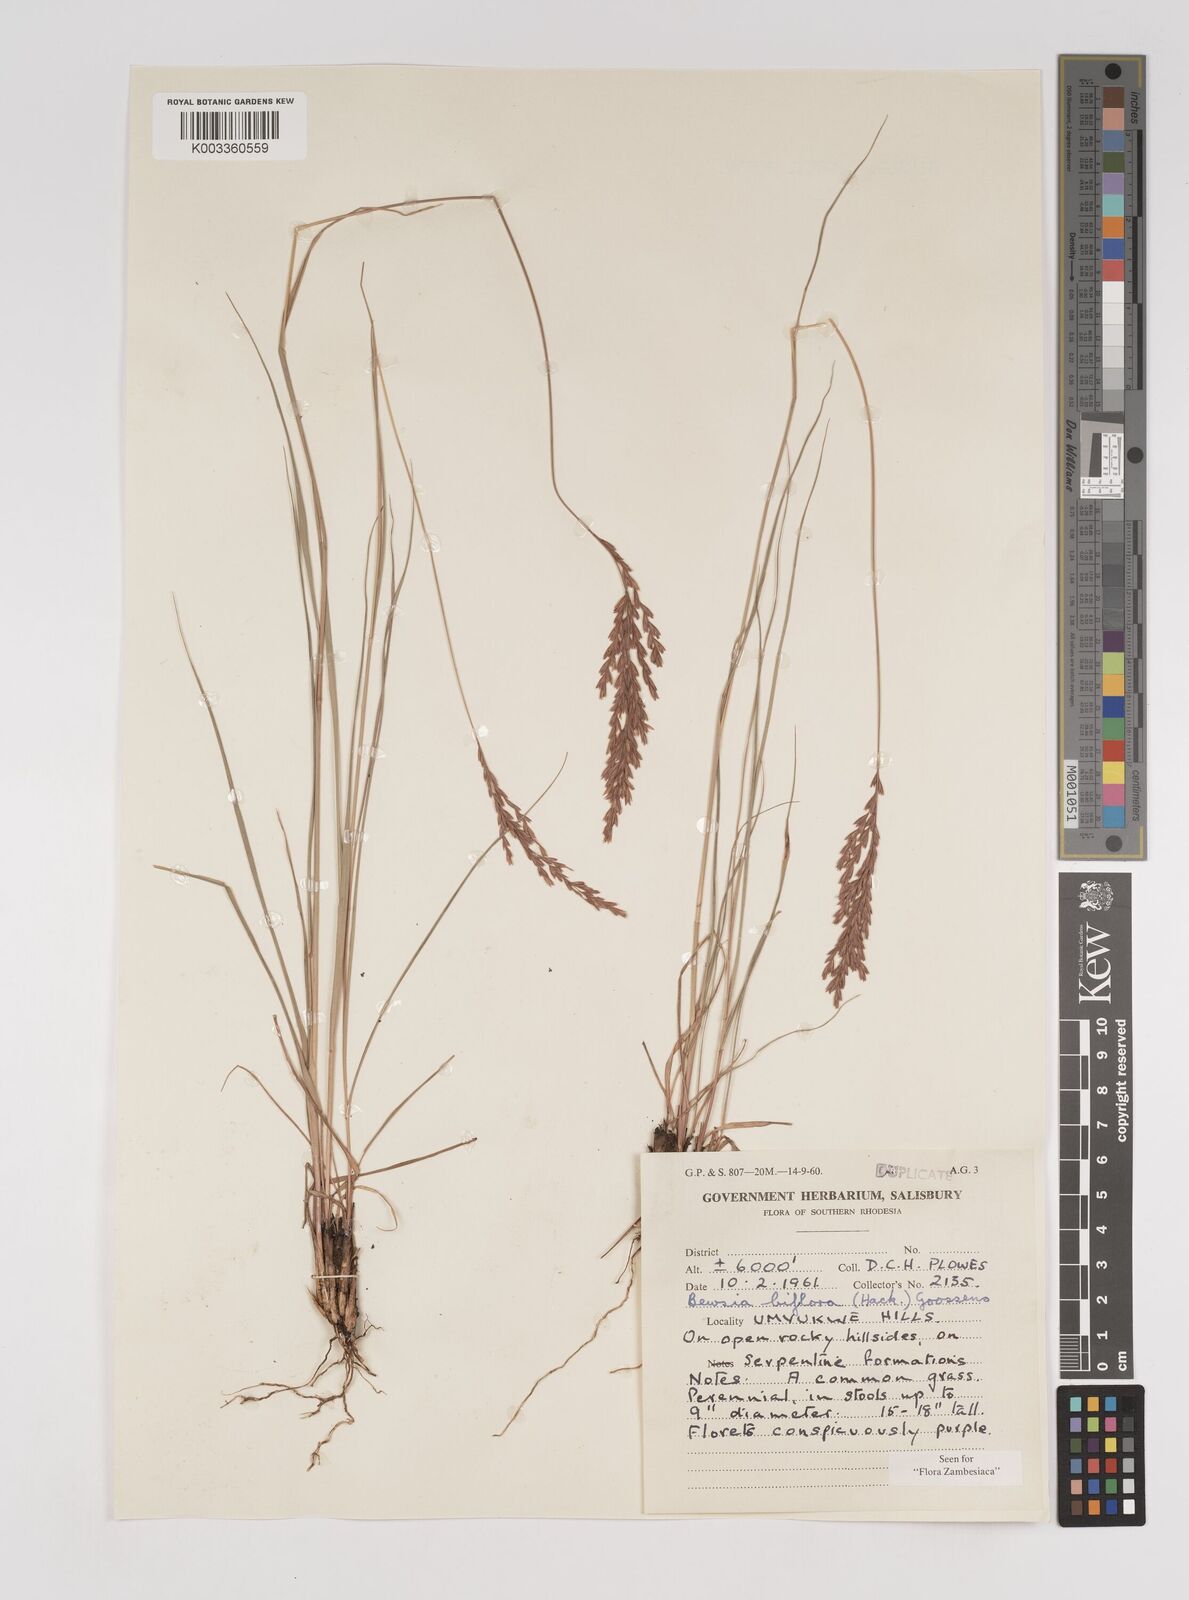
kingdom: Plantae
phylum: Tracheophyta
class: Liliopsida
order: Poales
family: Poaceae
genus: Bewsia
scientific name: Bewsia biflora
